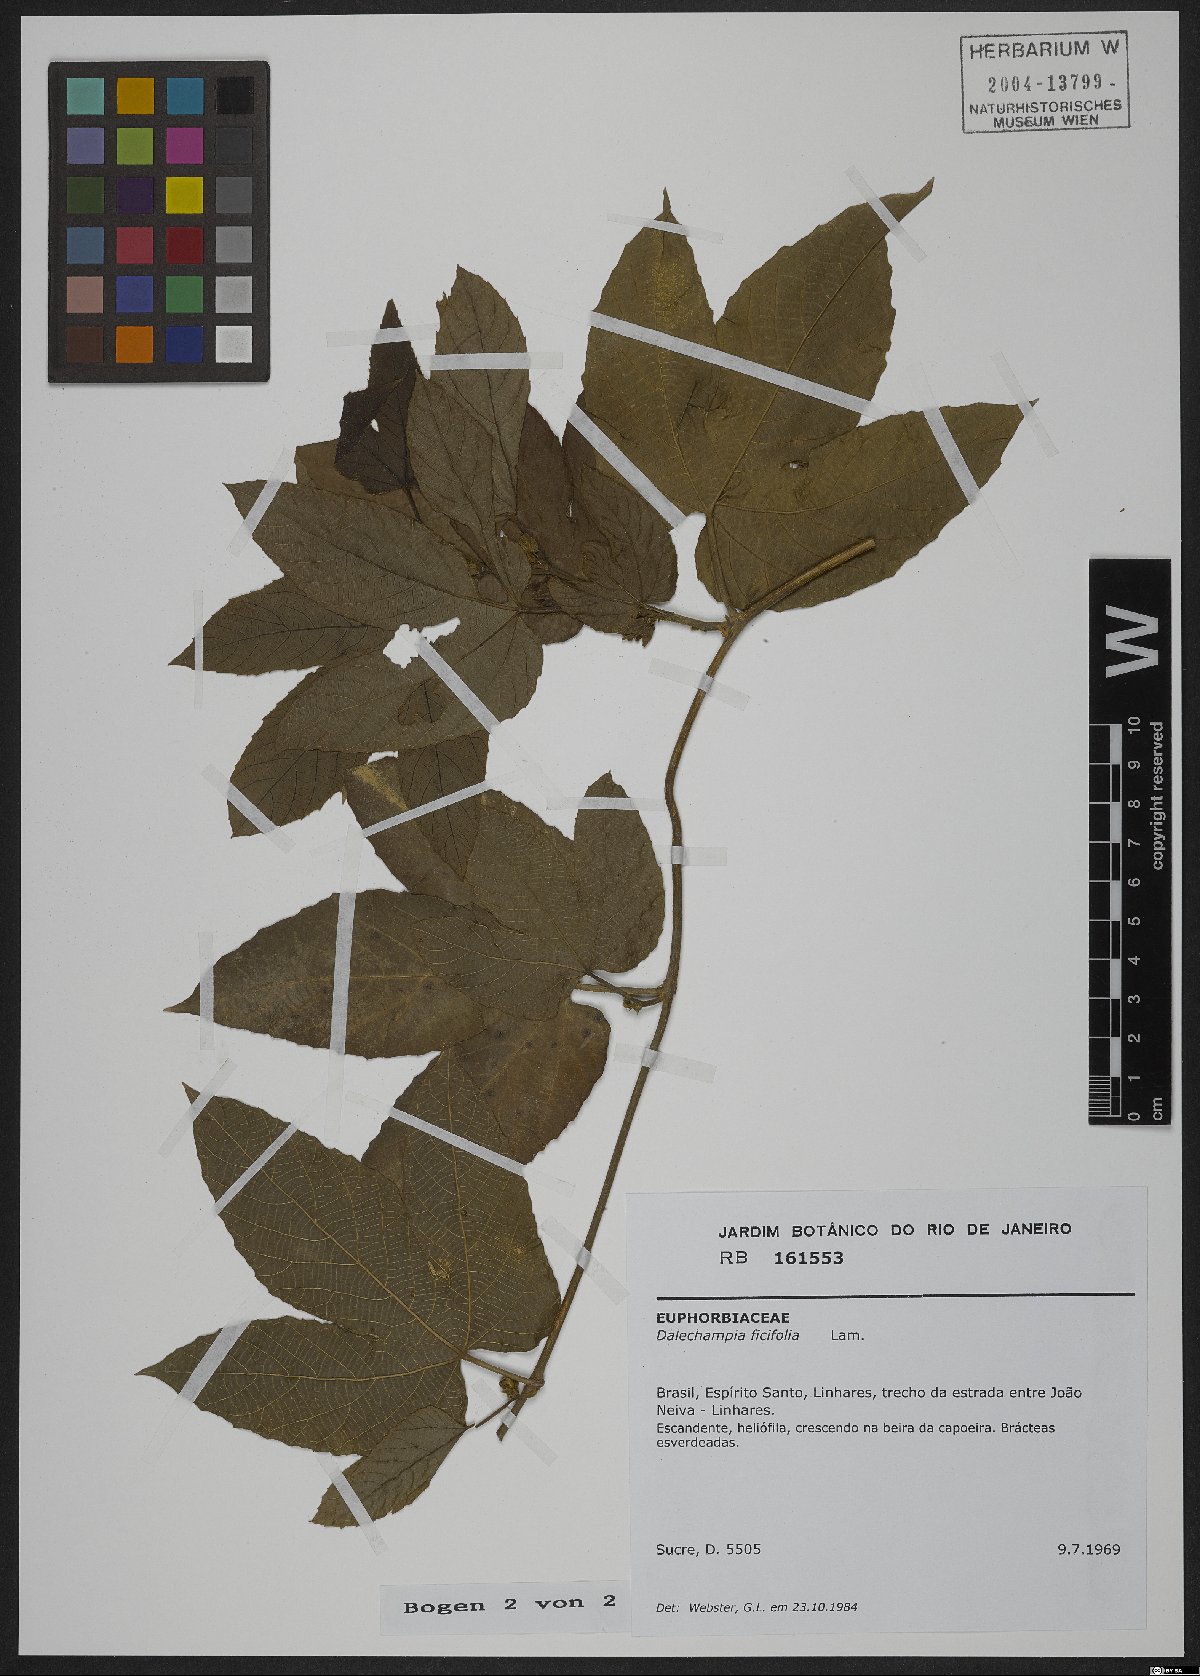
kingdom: Plantae
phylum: Tracheophyta
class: Magnoliopsida
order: Malpighiales
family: Euphorbiaceae
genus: Dalechampia
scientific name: Dalechampia ficifolia
